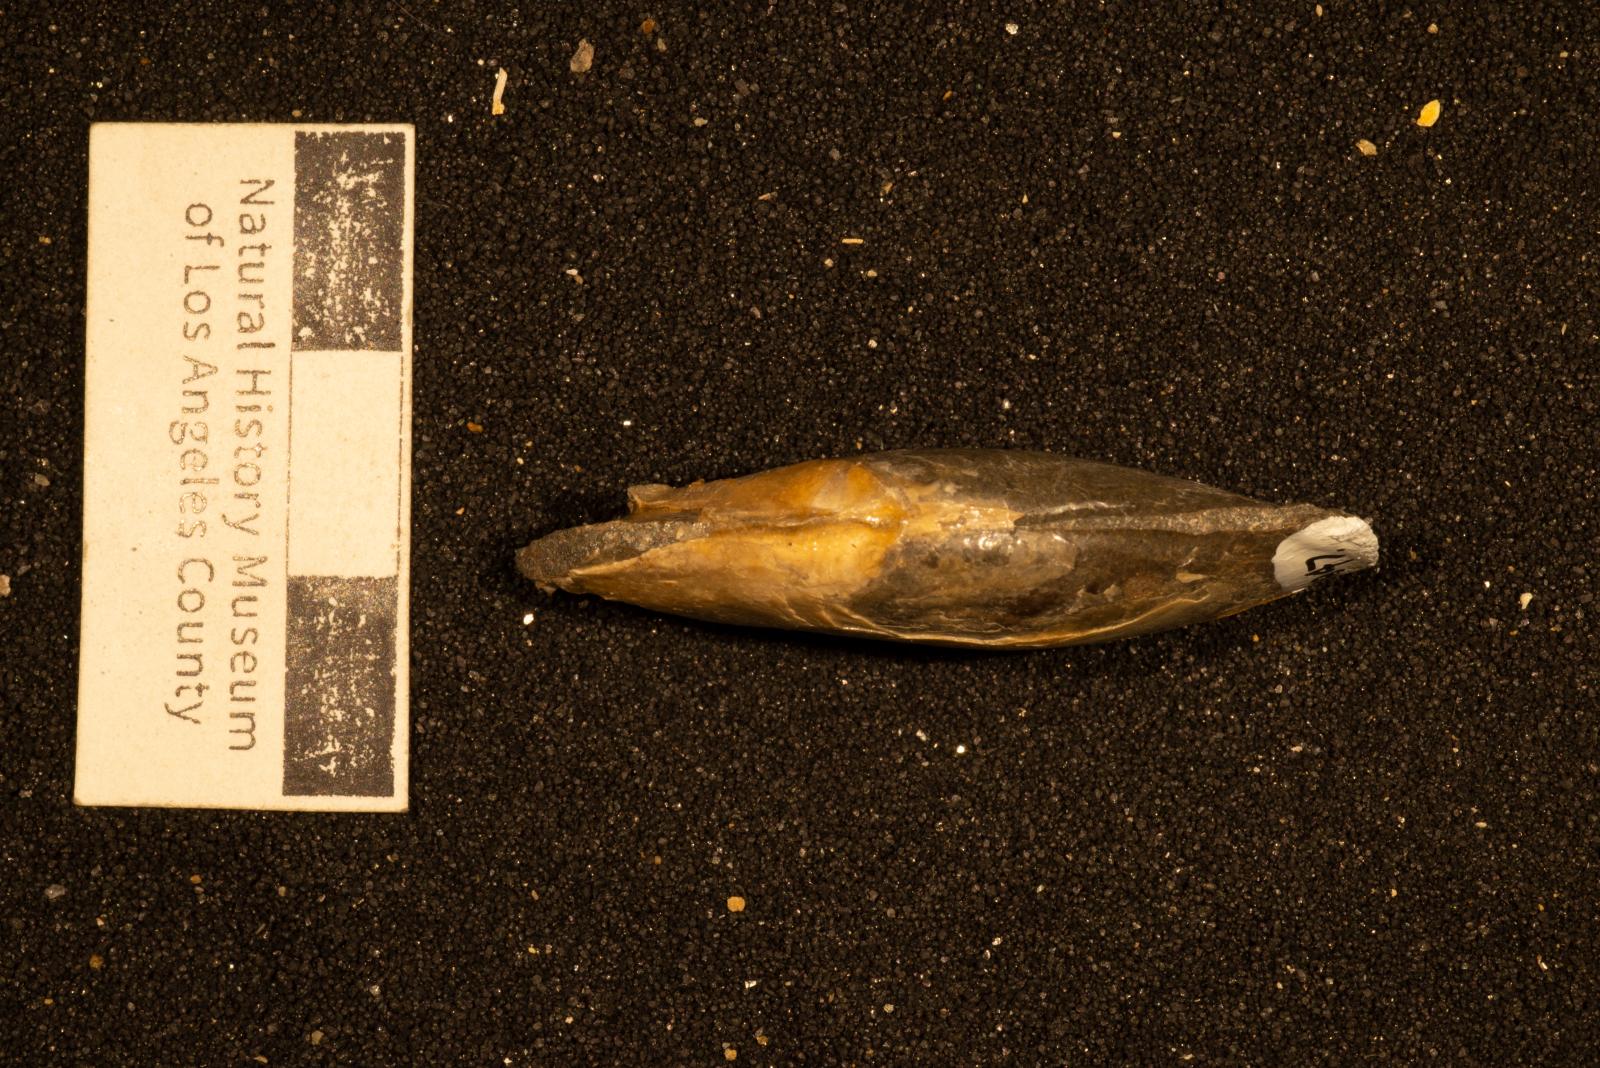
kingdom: Animalia
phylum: Mollusca
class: Bivalvia
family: Laternulidae
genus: Periplomya
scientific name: Periplomya
